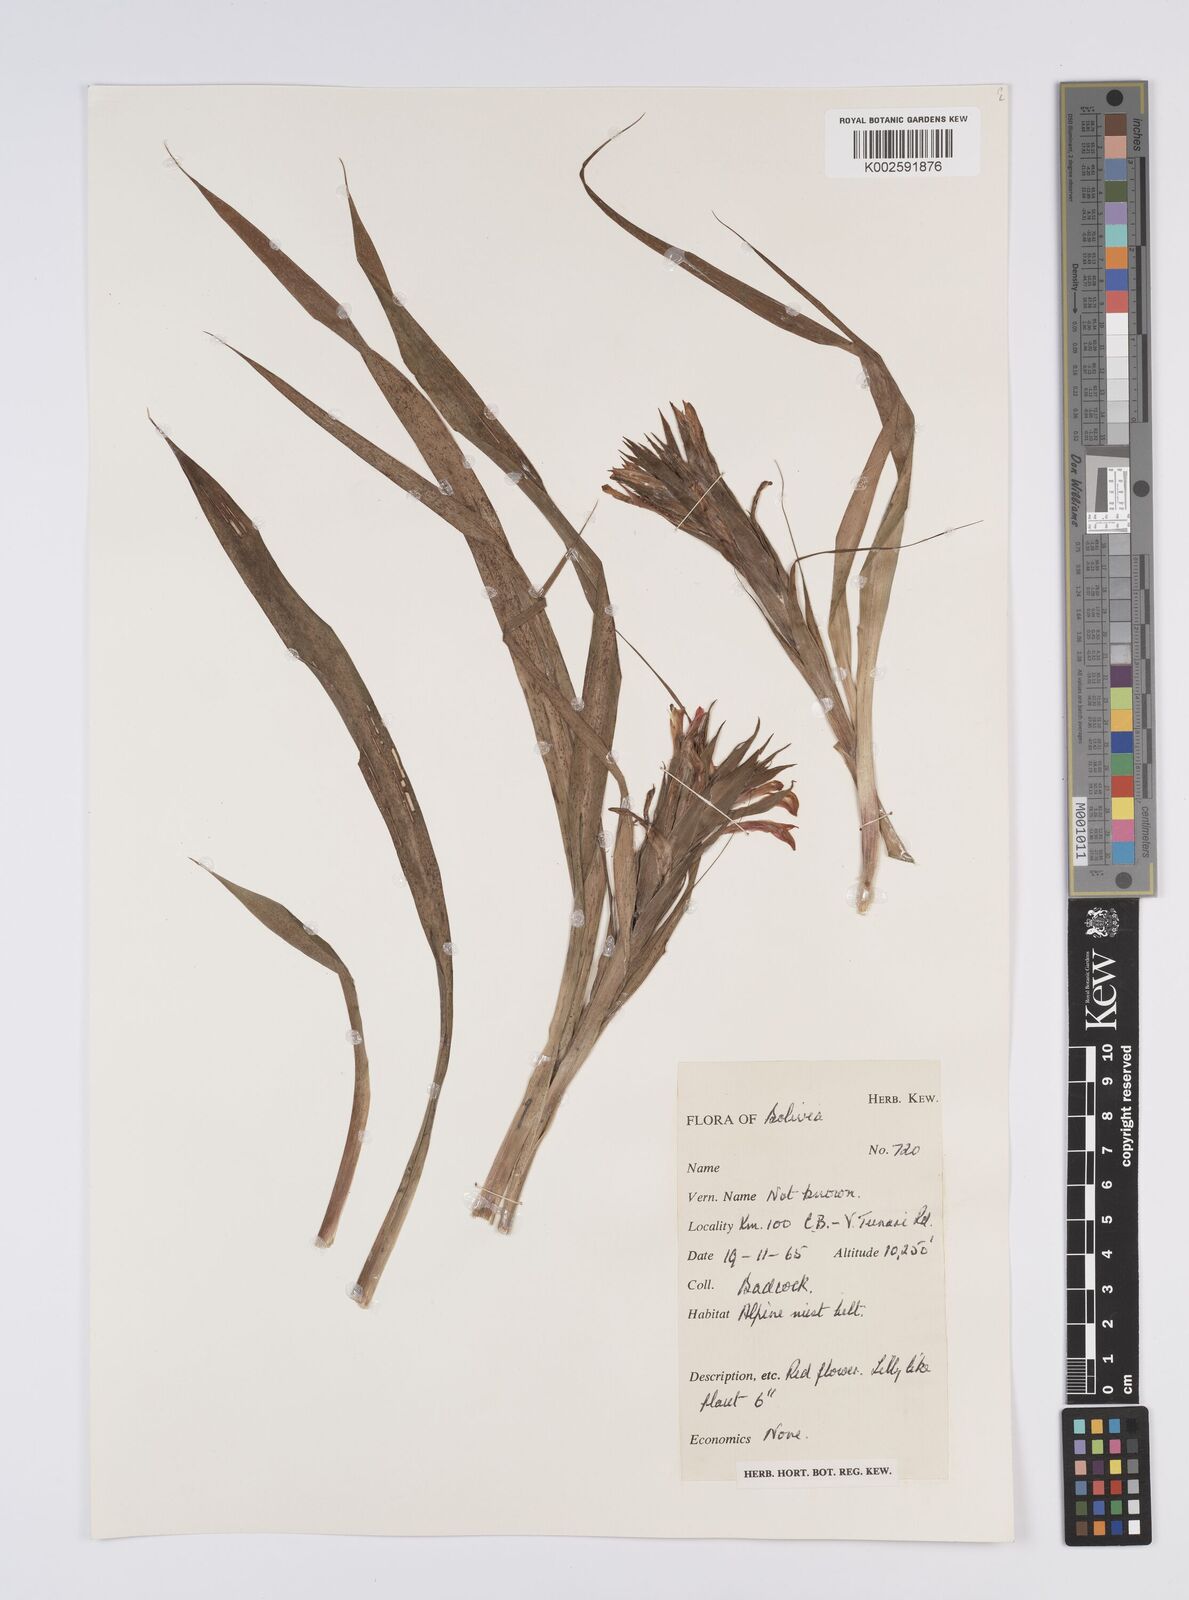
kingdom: Plantae
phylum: Tracheophyta
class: Liliopsida
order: Poales
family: Bromeliaceae
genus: Aechmea
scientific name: Aechmea
